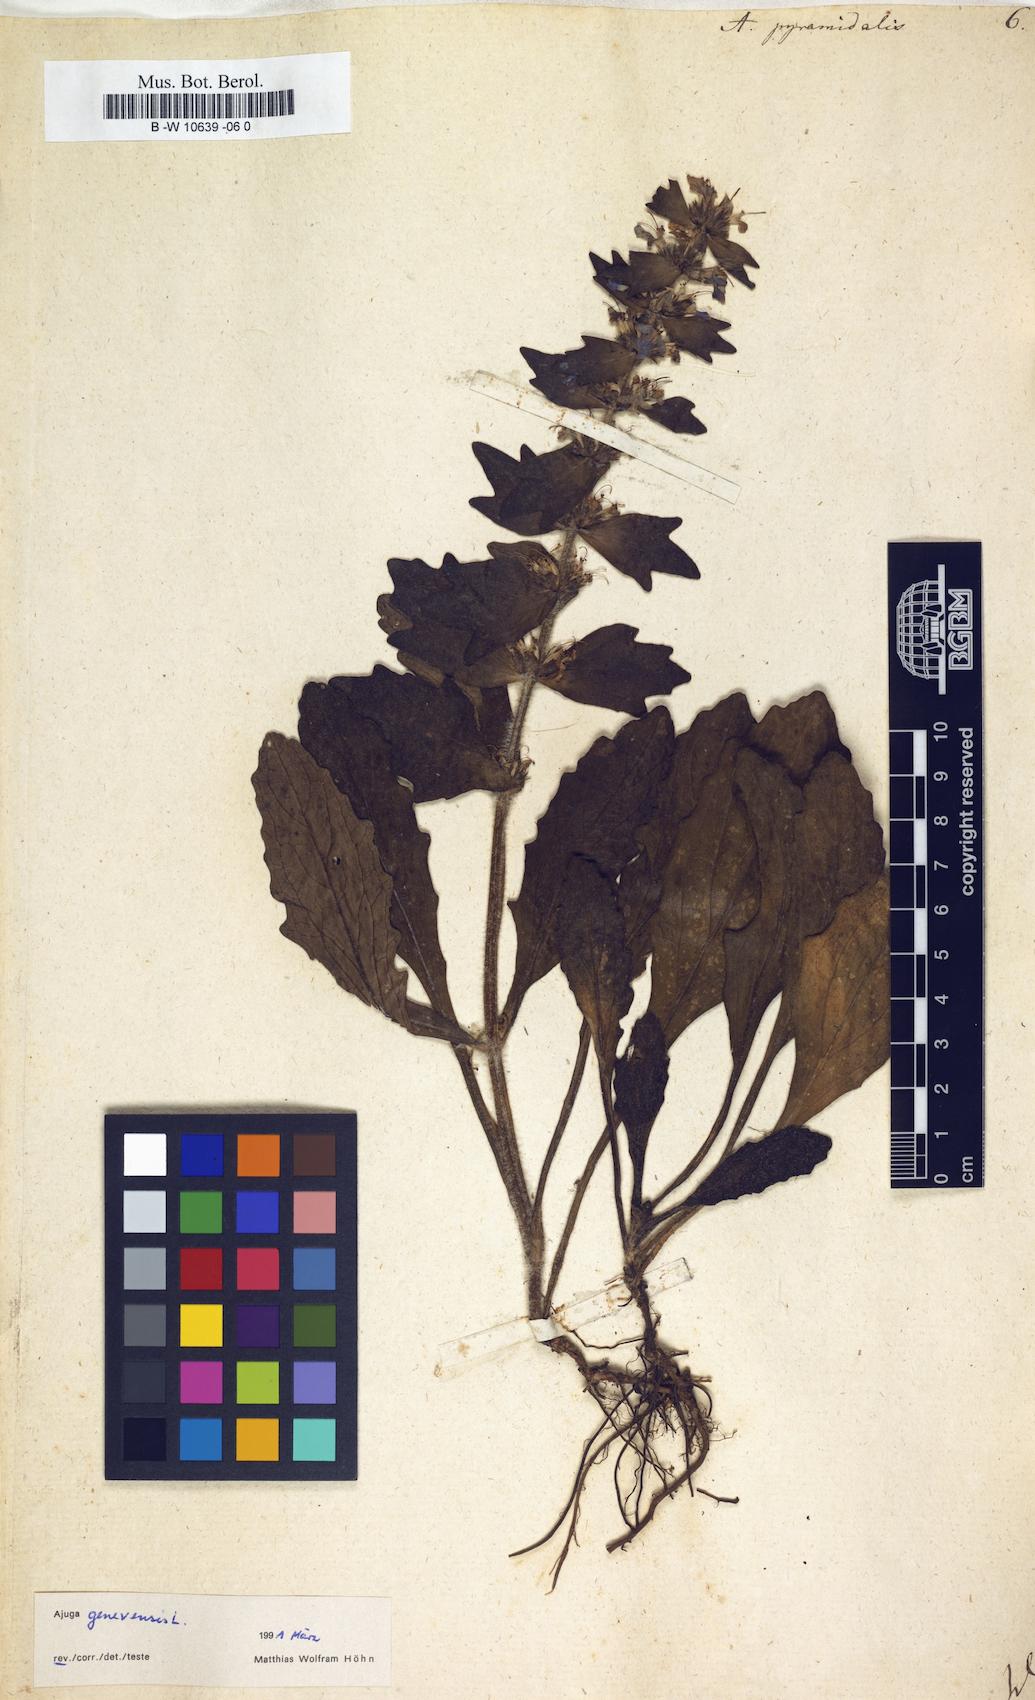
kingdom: Plantae
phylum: Tracheophyta
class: Magnoliopsida
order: Lamiales
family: Lamiaceae
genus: Ajuga
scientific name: Ajuga pyramidalis
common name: Pyramid bugle
